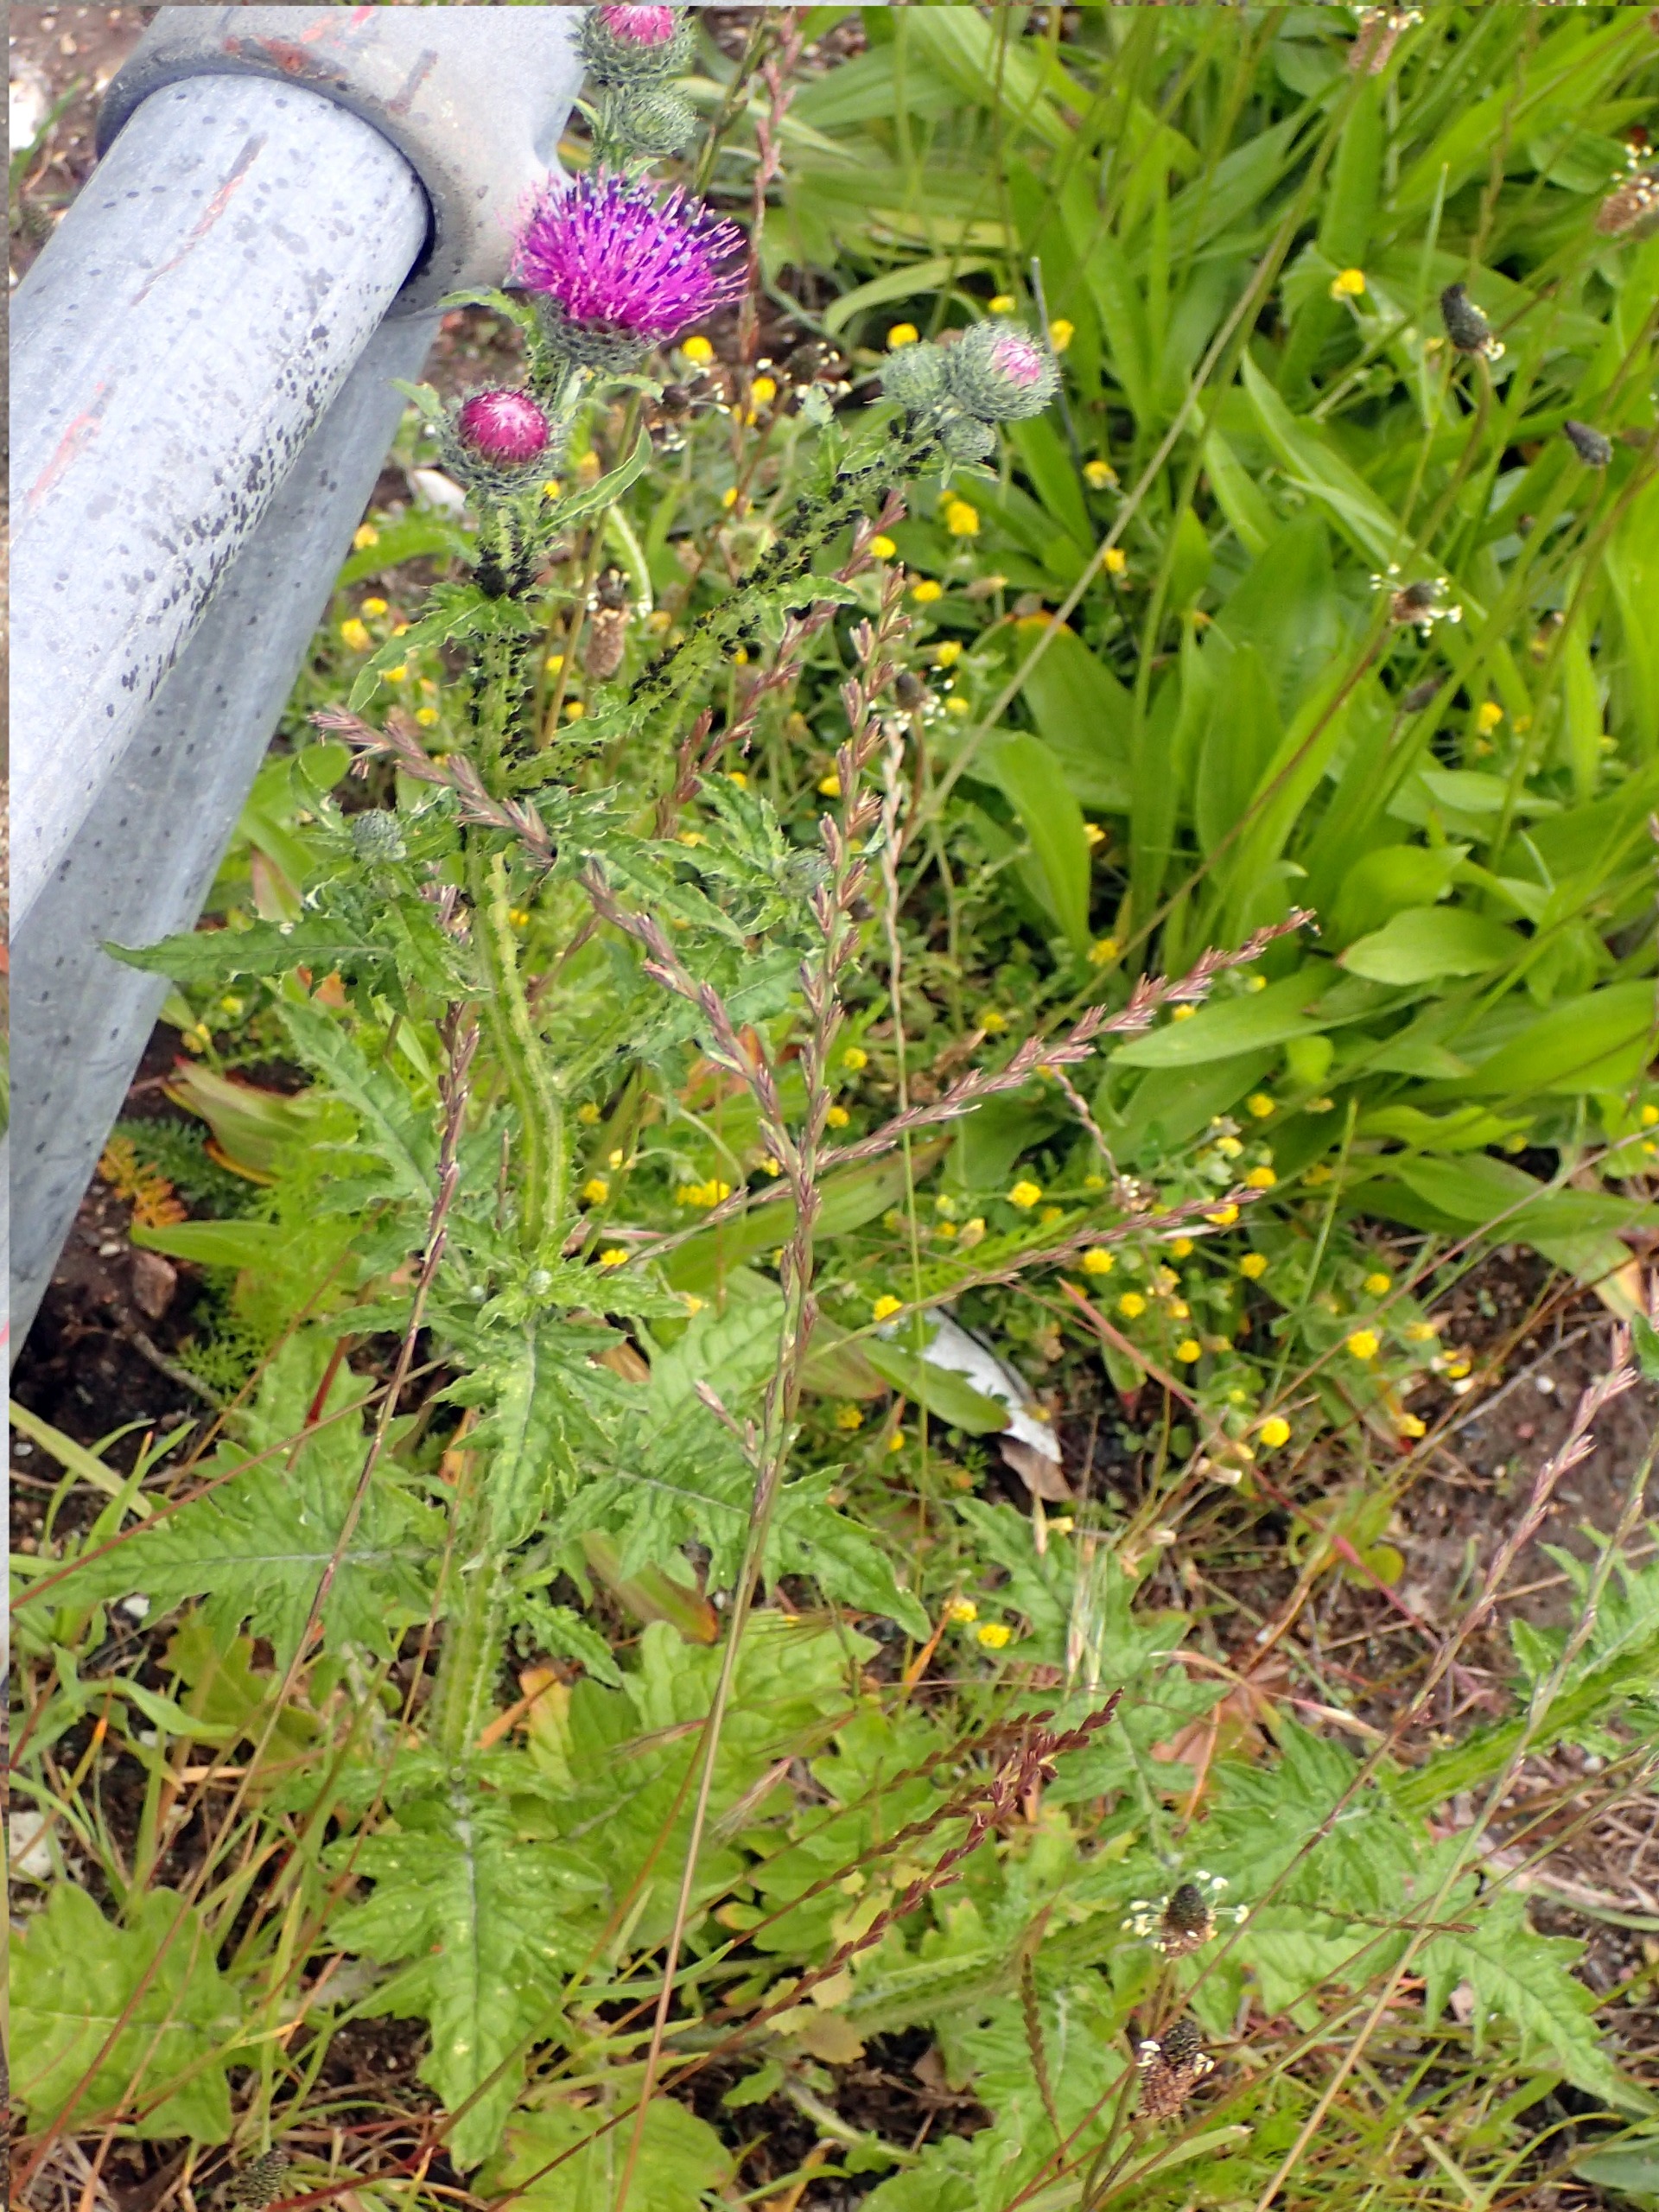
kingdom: Plantae
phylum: Tracheophyta
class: Magnoliopsida
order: Asterales
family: Asteraceae
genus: Carduus
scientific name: Carduus crispus
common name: Kruset tidsel
